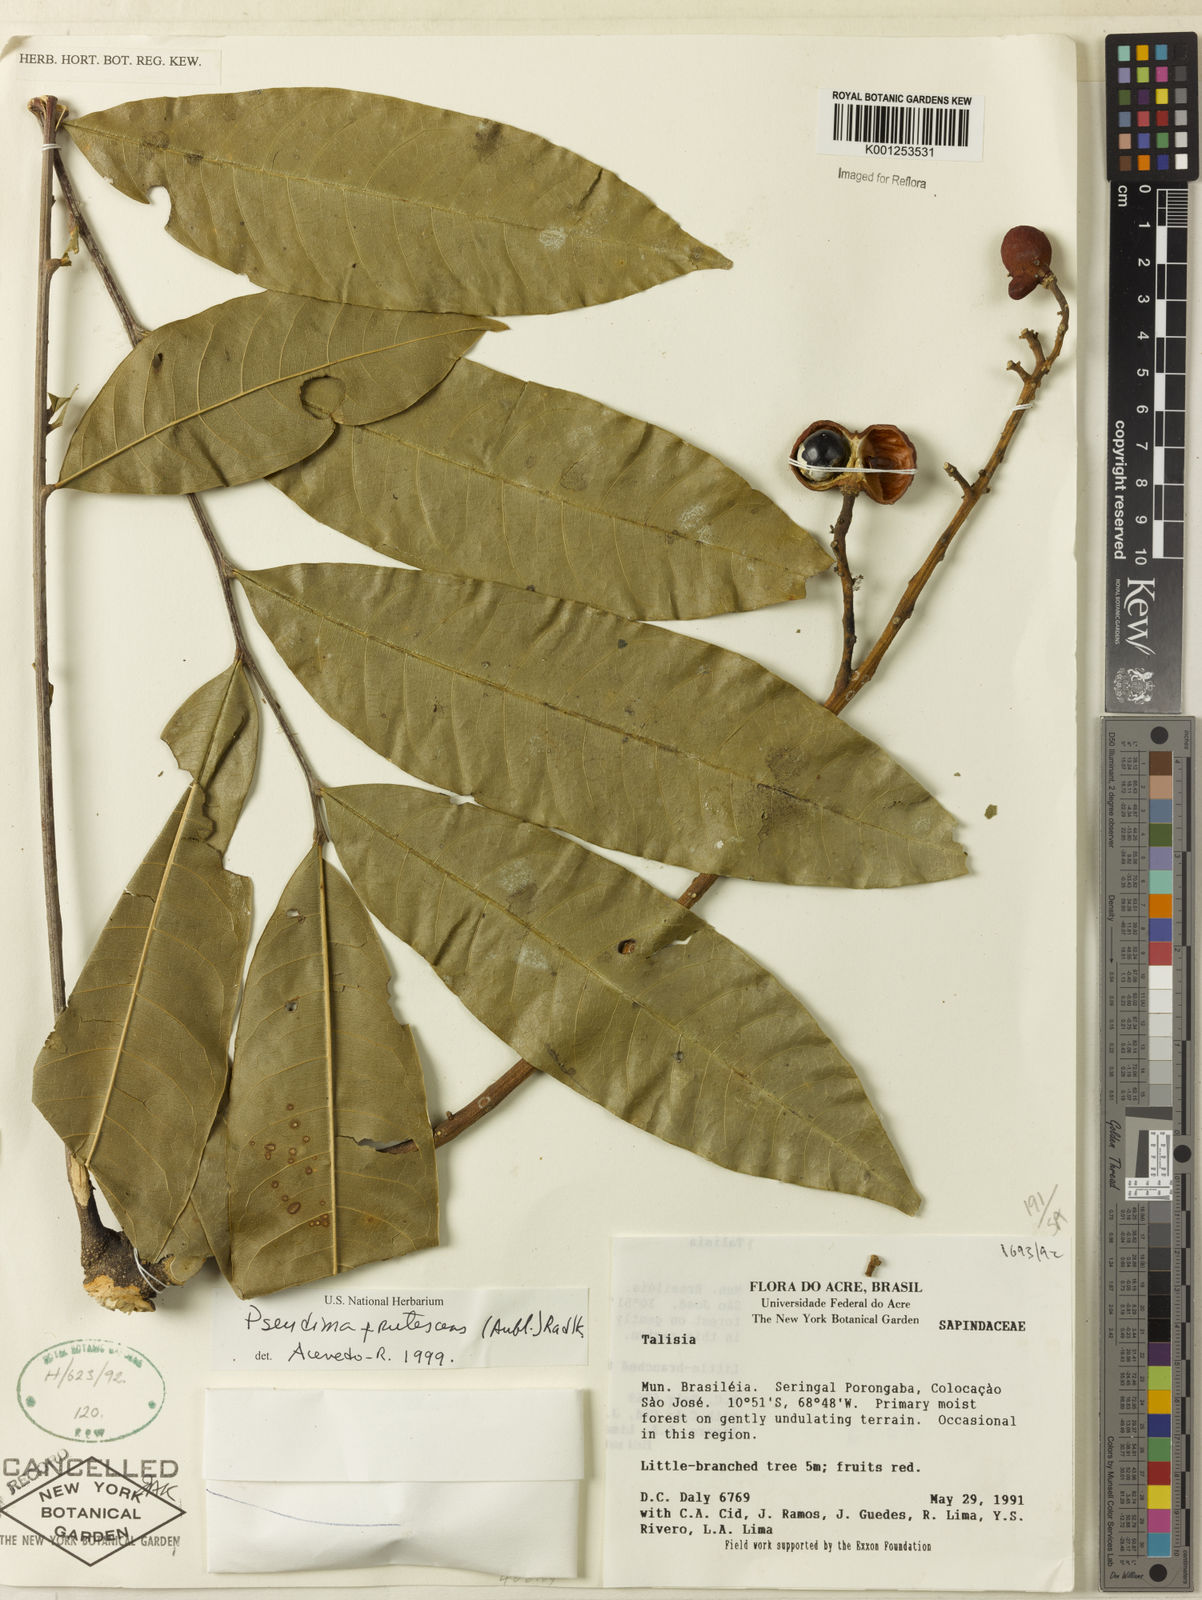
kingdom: Plantae
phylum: Tracheophyta
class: Magnoliopsida
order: Sapindales
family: Sapindaceae
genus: Pseudima
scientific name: Pseudima frutescens
